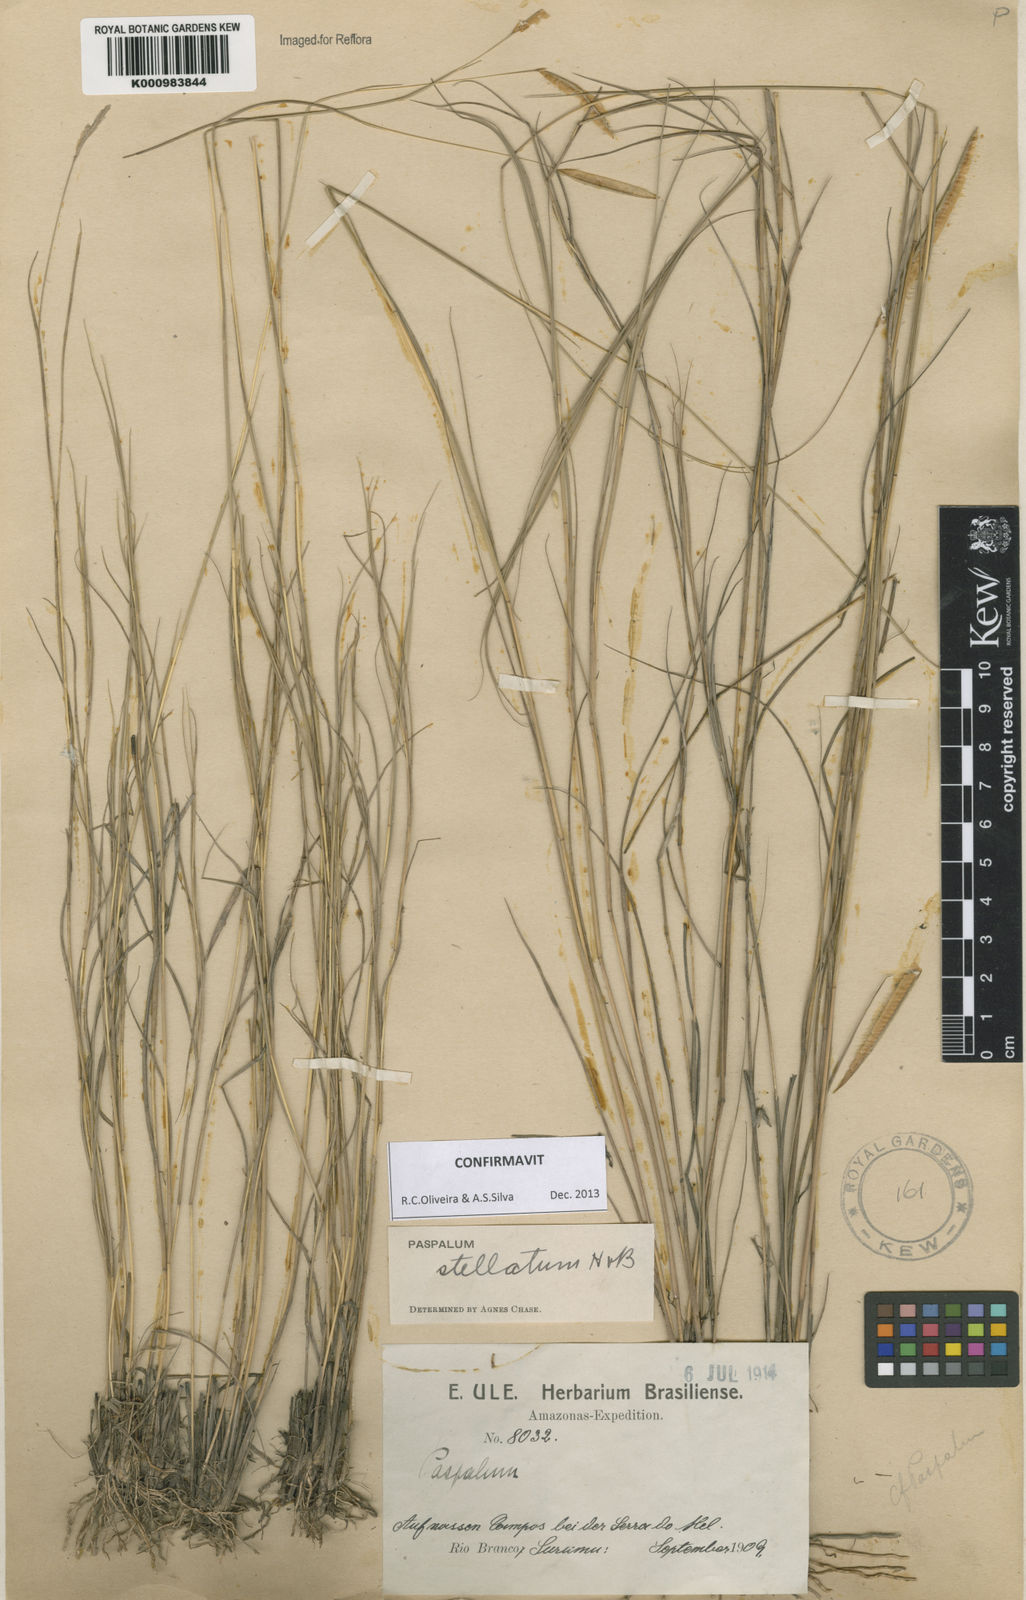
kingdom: Plantae
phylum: Tracheophyta
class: Liliopsida
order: Poales
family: Poaceae
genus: Paspalum
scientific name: Paspalum
